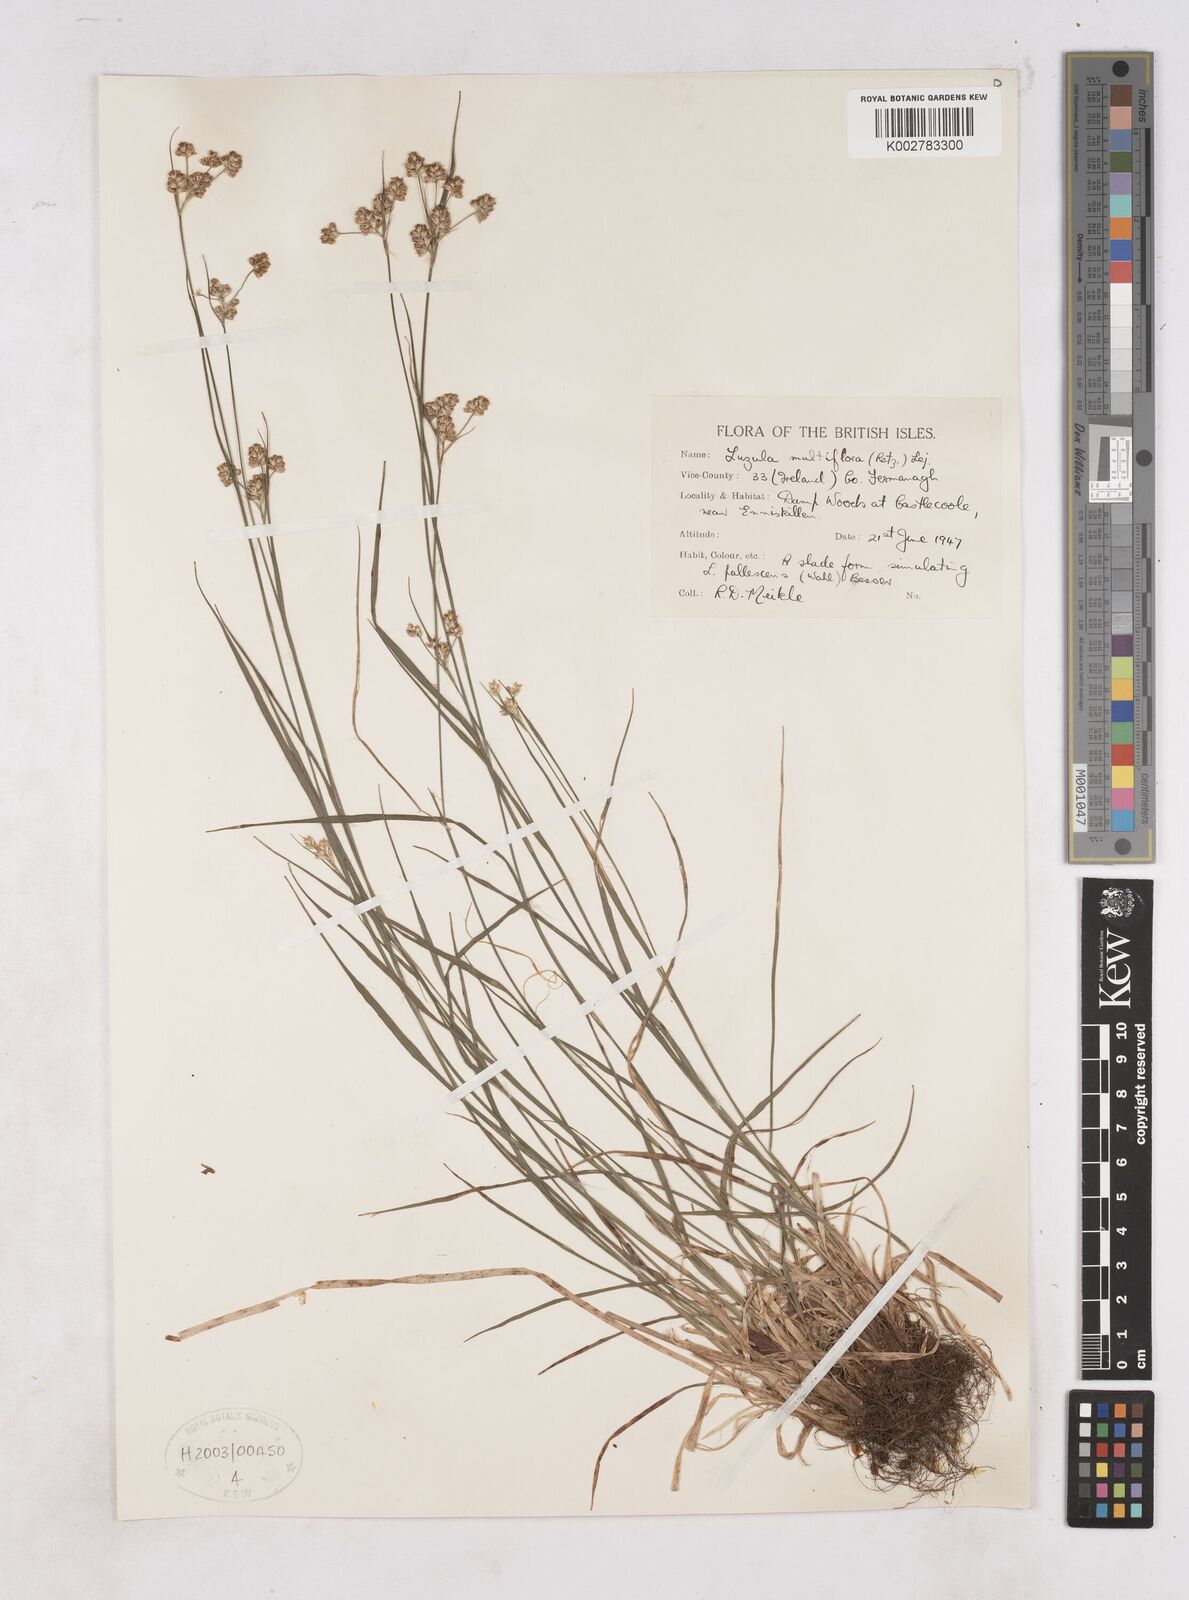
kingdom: Plantae
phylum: Tracheophyta
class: Liliopsida
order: Poales
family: Juncaceae
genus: Luzula
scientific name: Luzula multiflora
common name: Heath wood-rush
